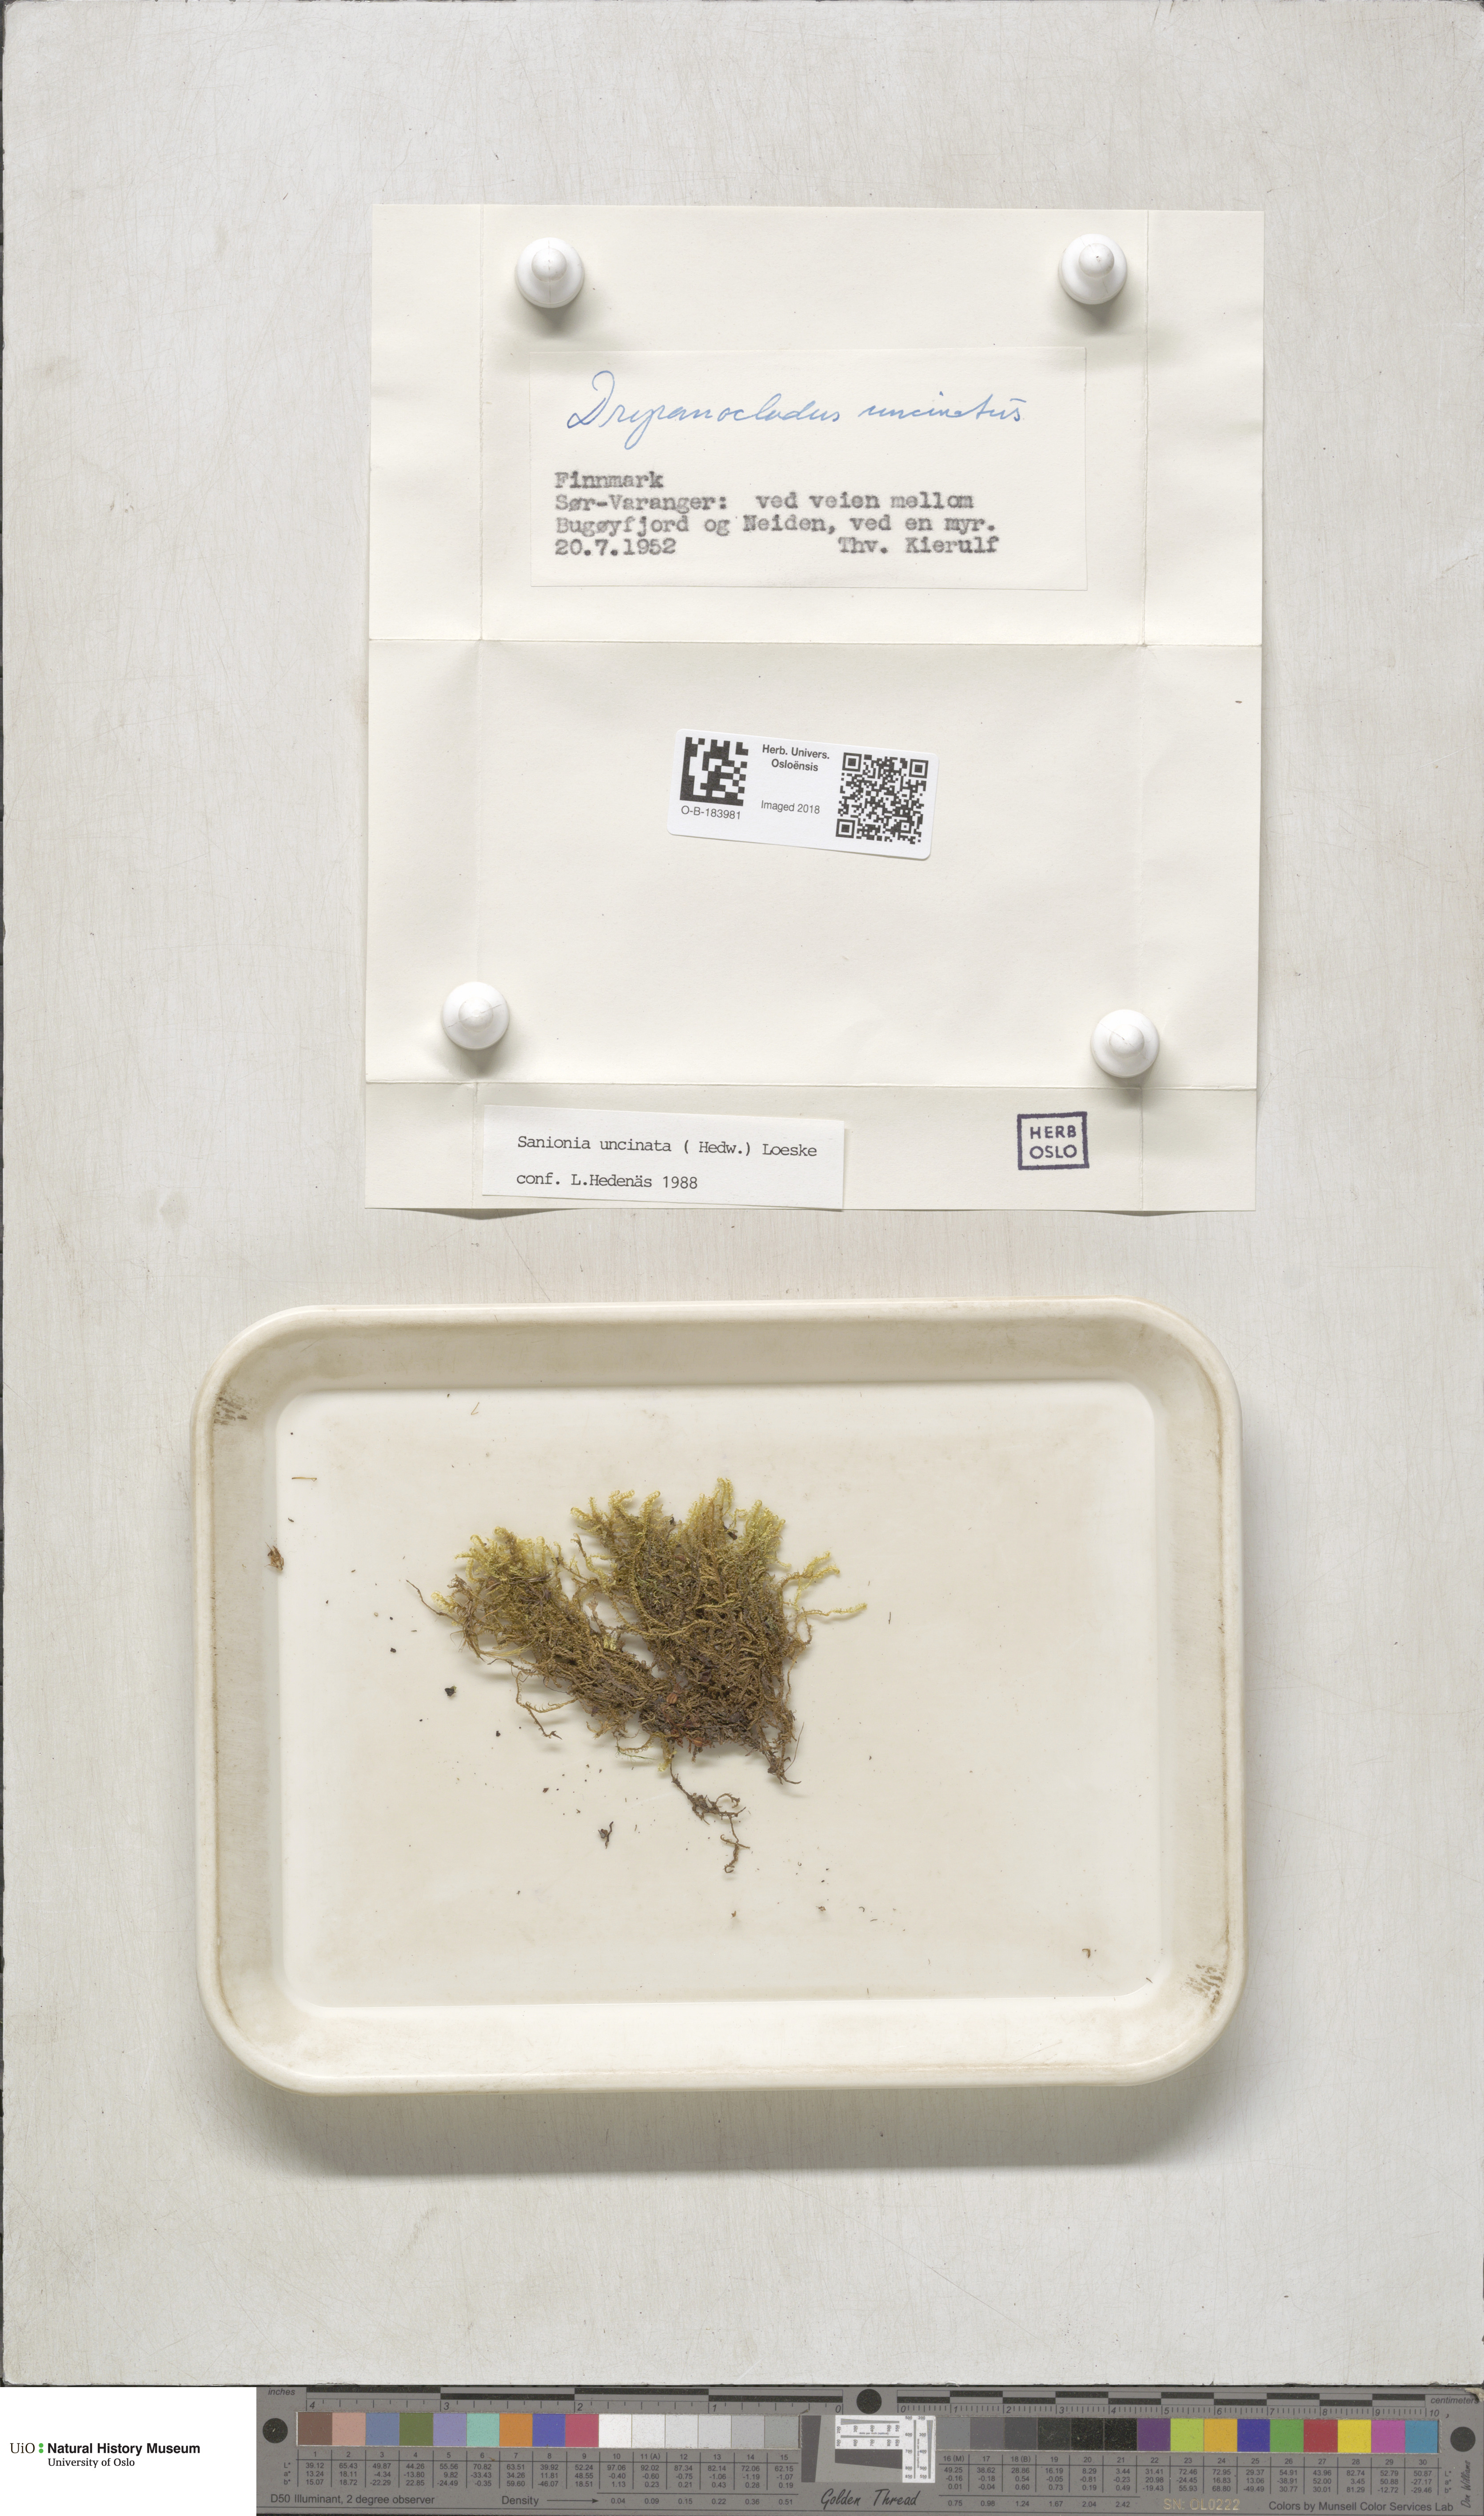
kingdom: Plantae
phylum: Bryophyta
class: Bryopsida
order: Hypnales
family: Scorpidiaceae
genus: Sanionia
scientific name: Sanionia uncinata
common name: Sickle moss
